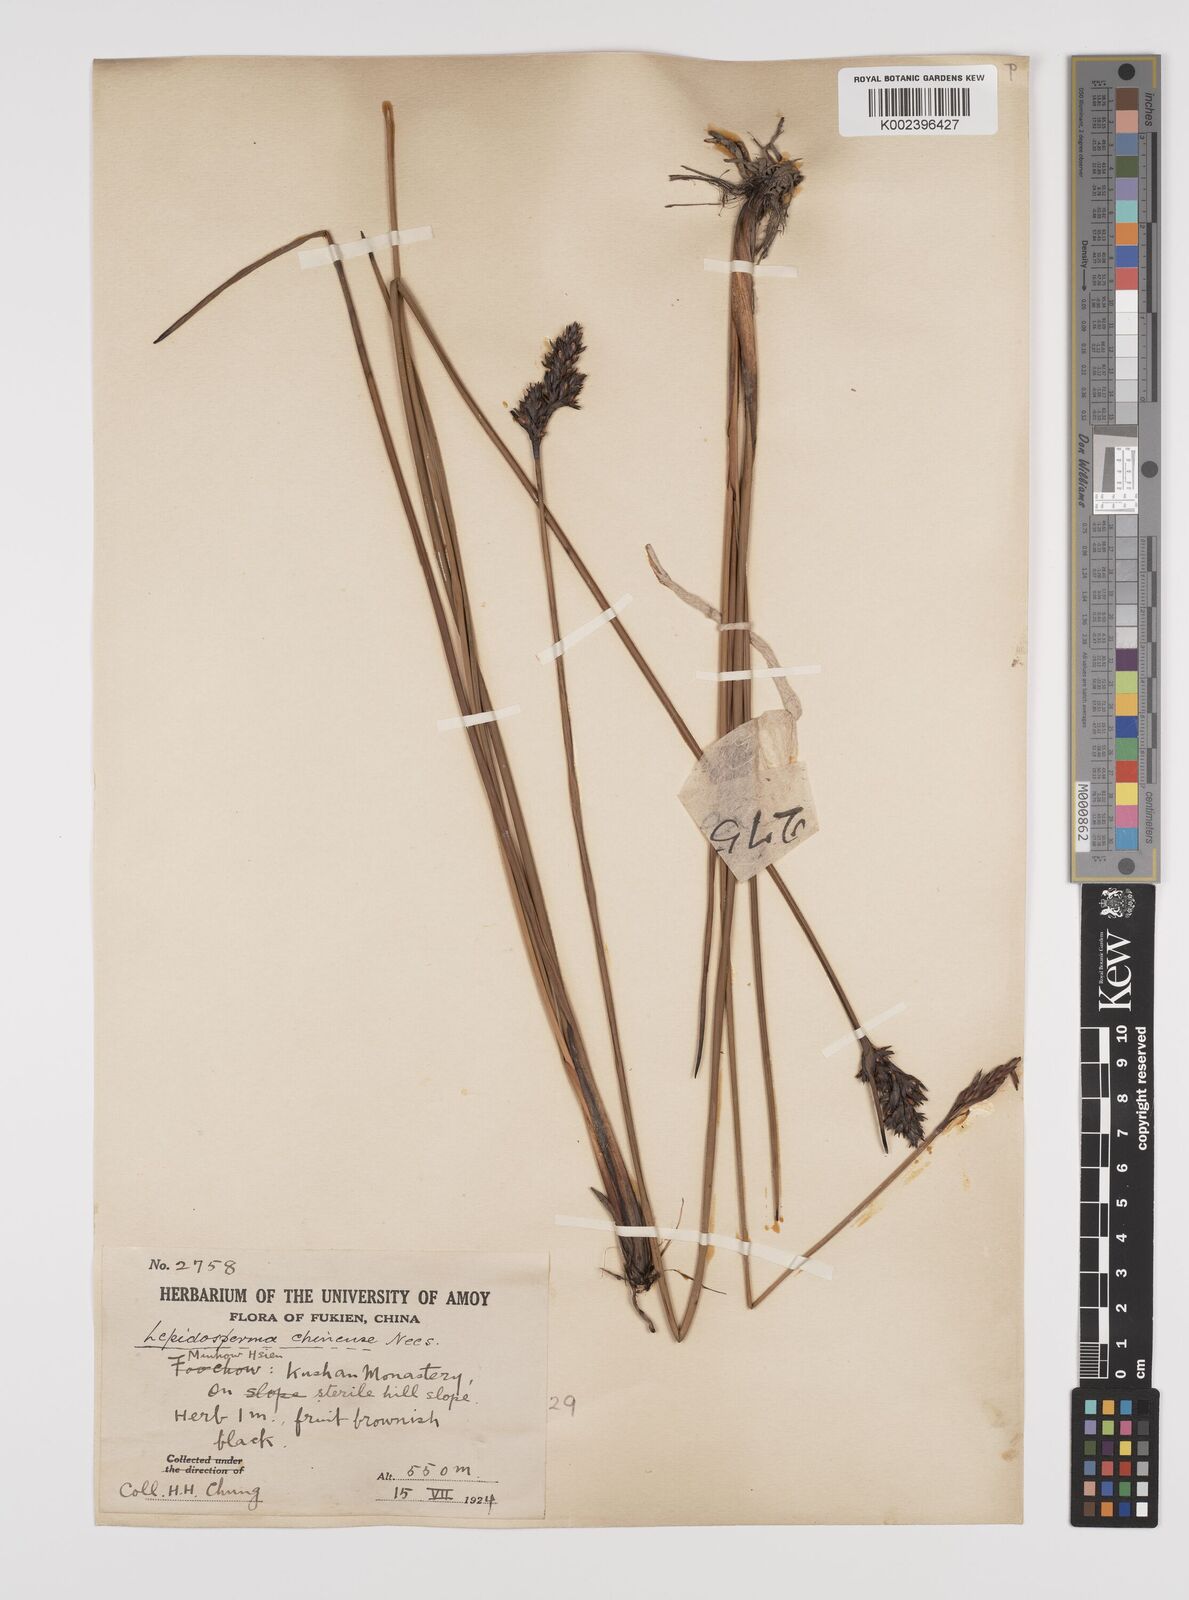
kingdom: Plantae
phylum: Tracheophyta
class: Liliopsida
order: Poales
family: Cyperaceae
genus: Lepidosperma
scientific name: Lepidosperma chinense
